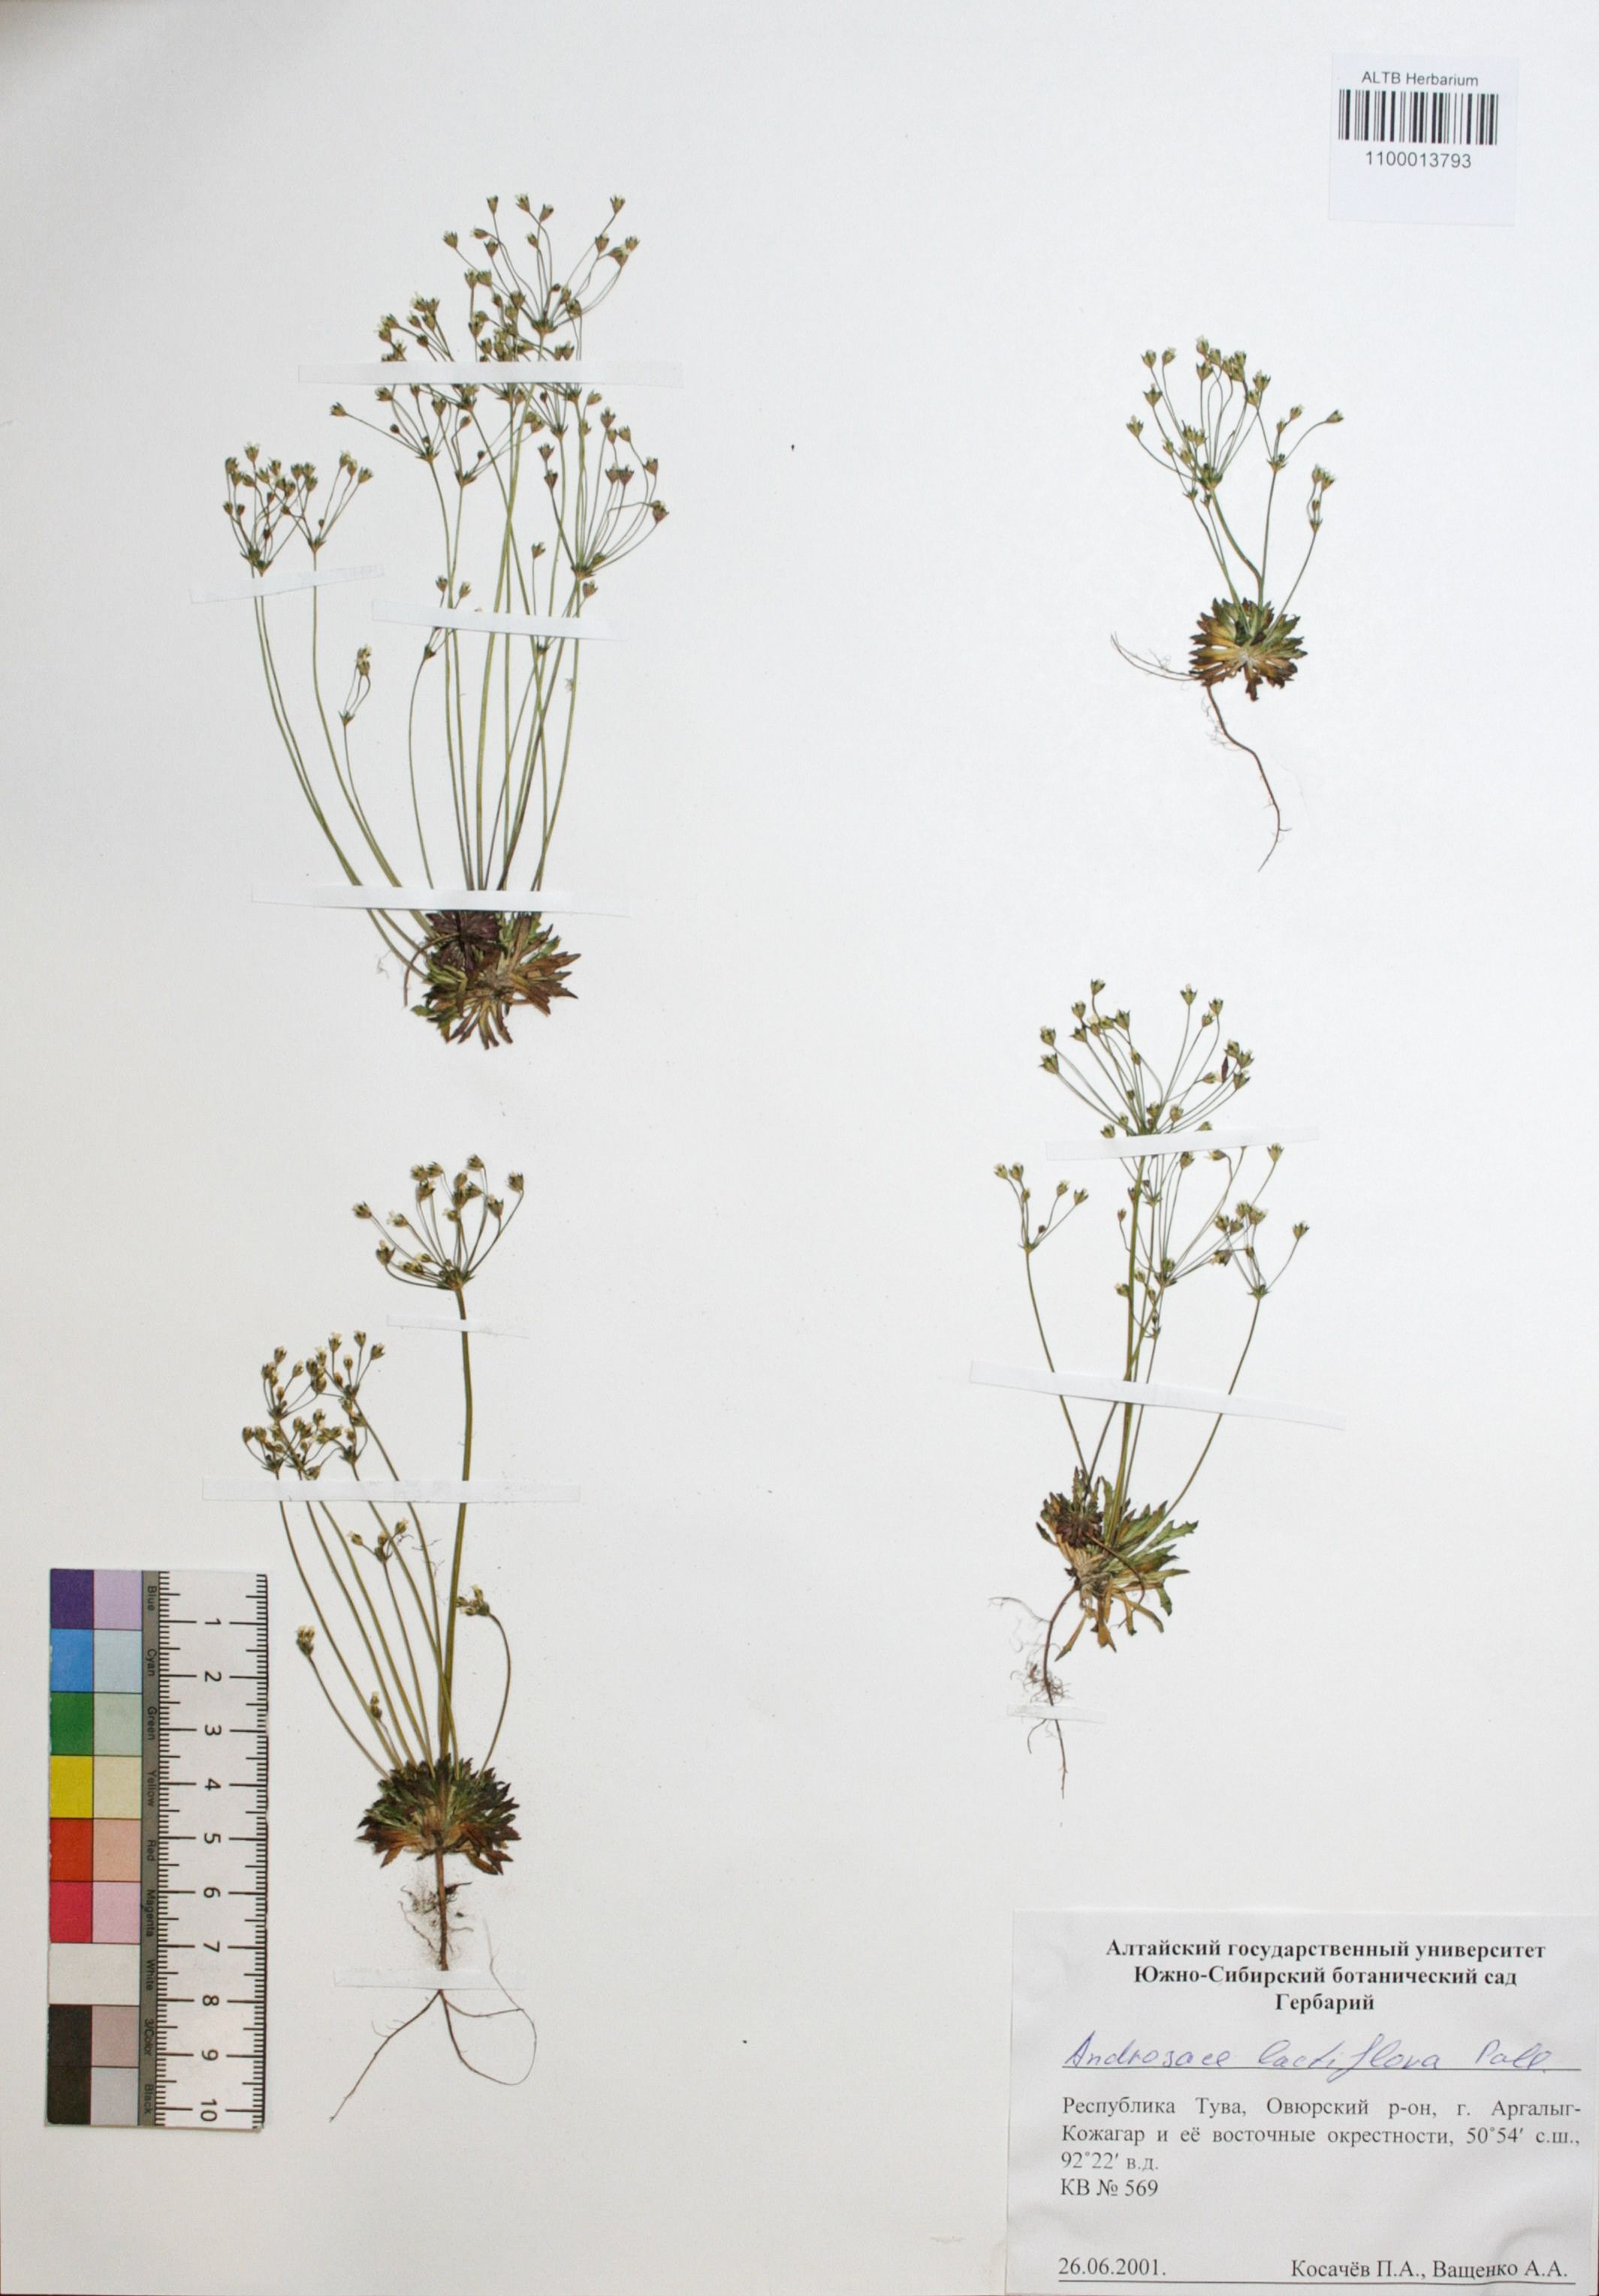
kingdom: Plantae
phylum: Tracheophyta
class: Magnoliopsida
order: Ericales
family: Primulaceae
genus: Androsace
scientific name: Androsace lactiflora
